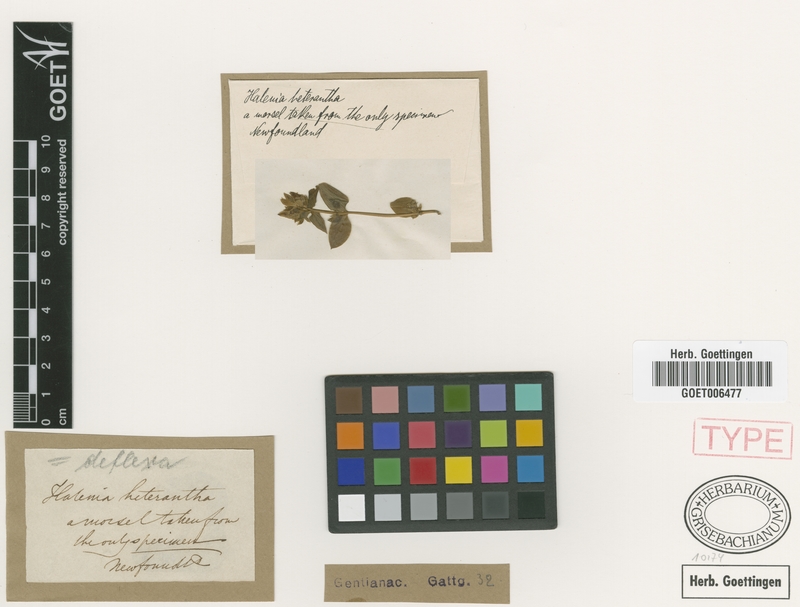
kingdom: Plantae
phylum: Tracheophyta
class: Magnoliopsida
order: Gentianales
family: Gentianaceae
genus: Halenia
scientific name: Halenia deflexa
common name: American spurred gentian
